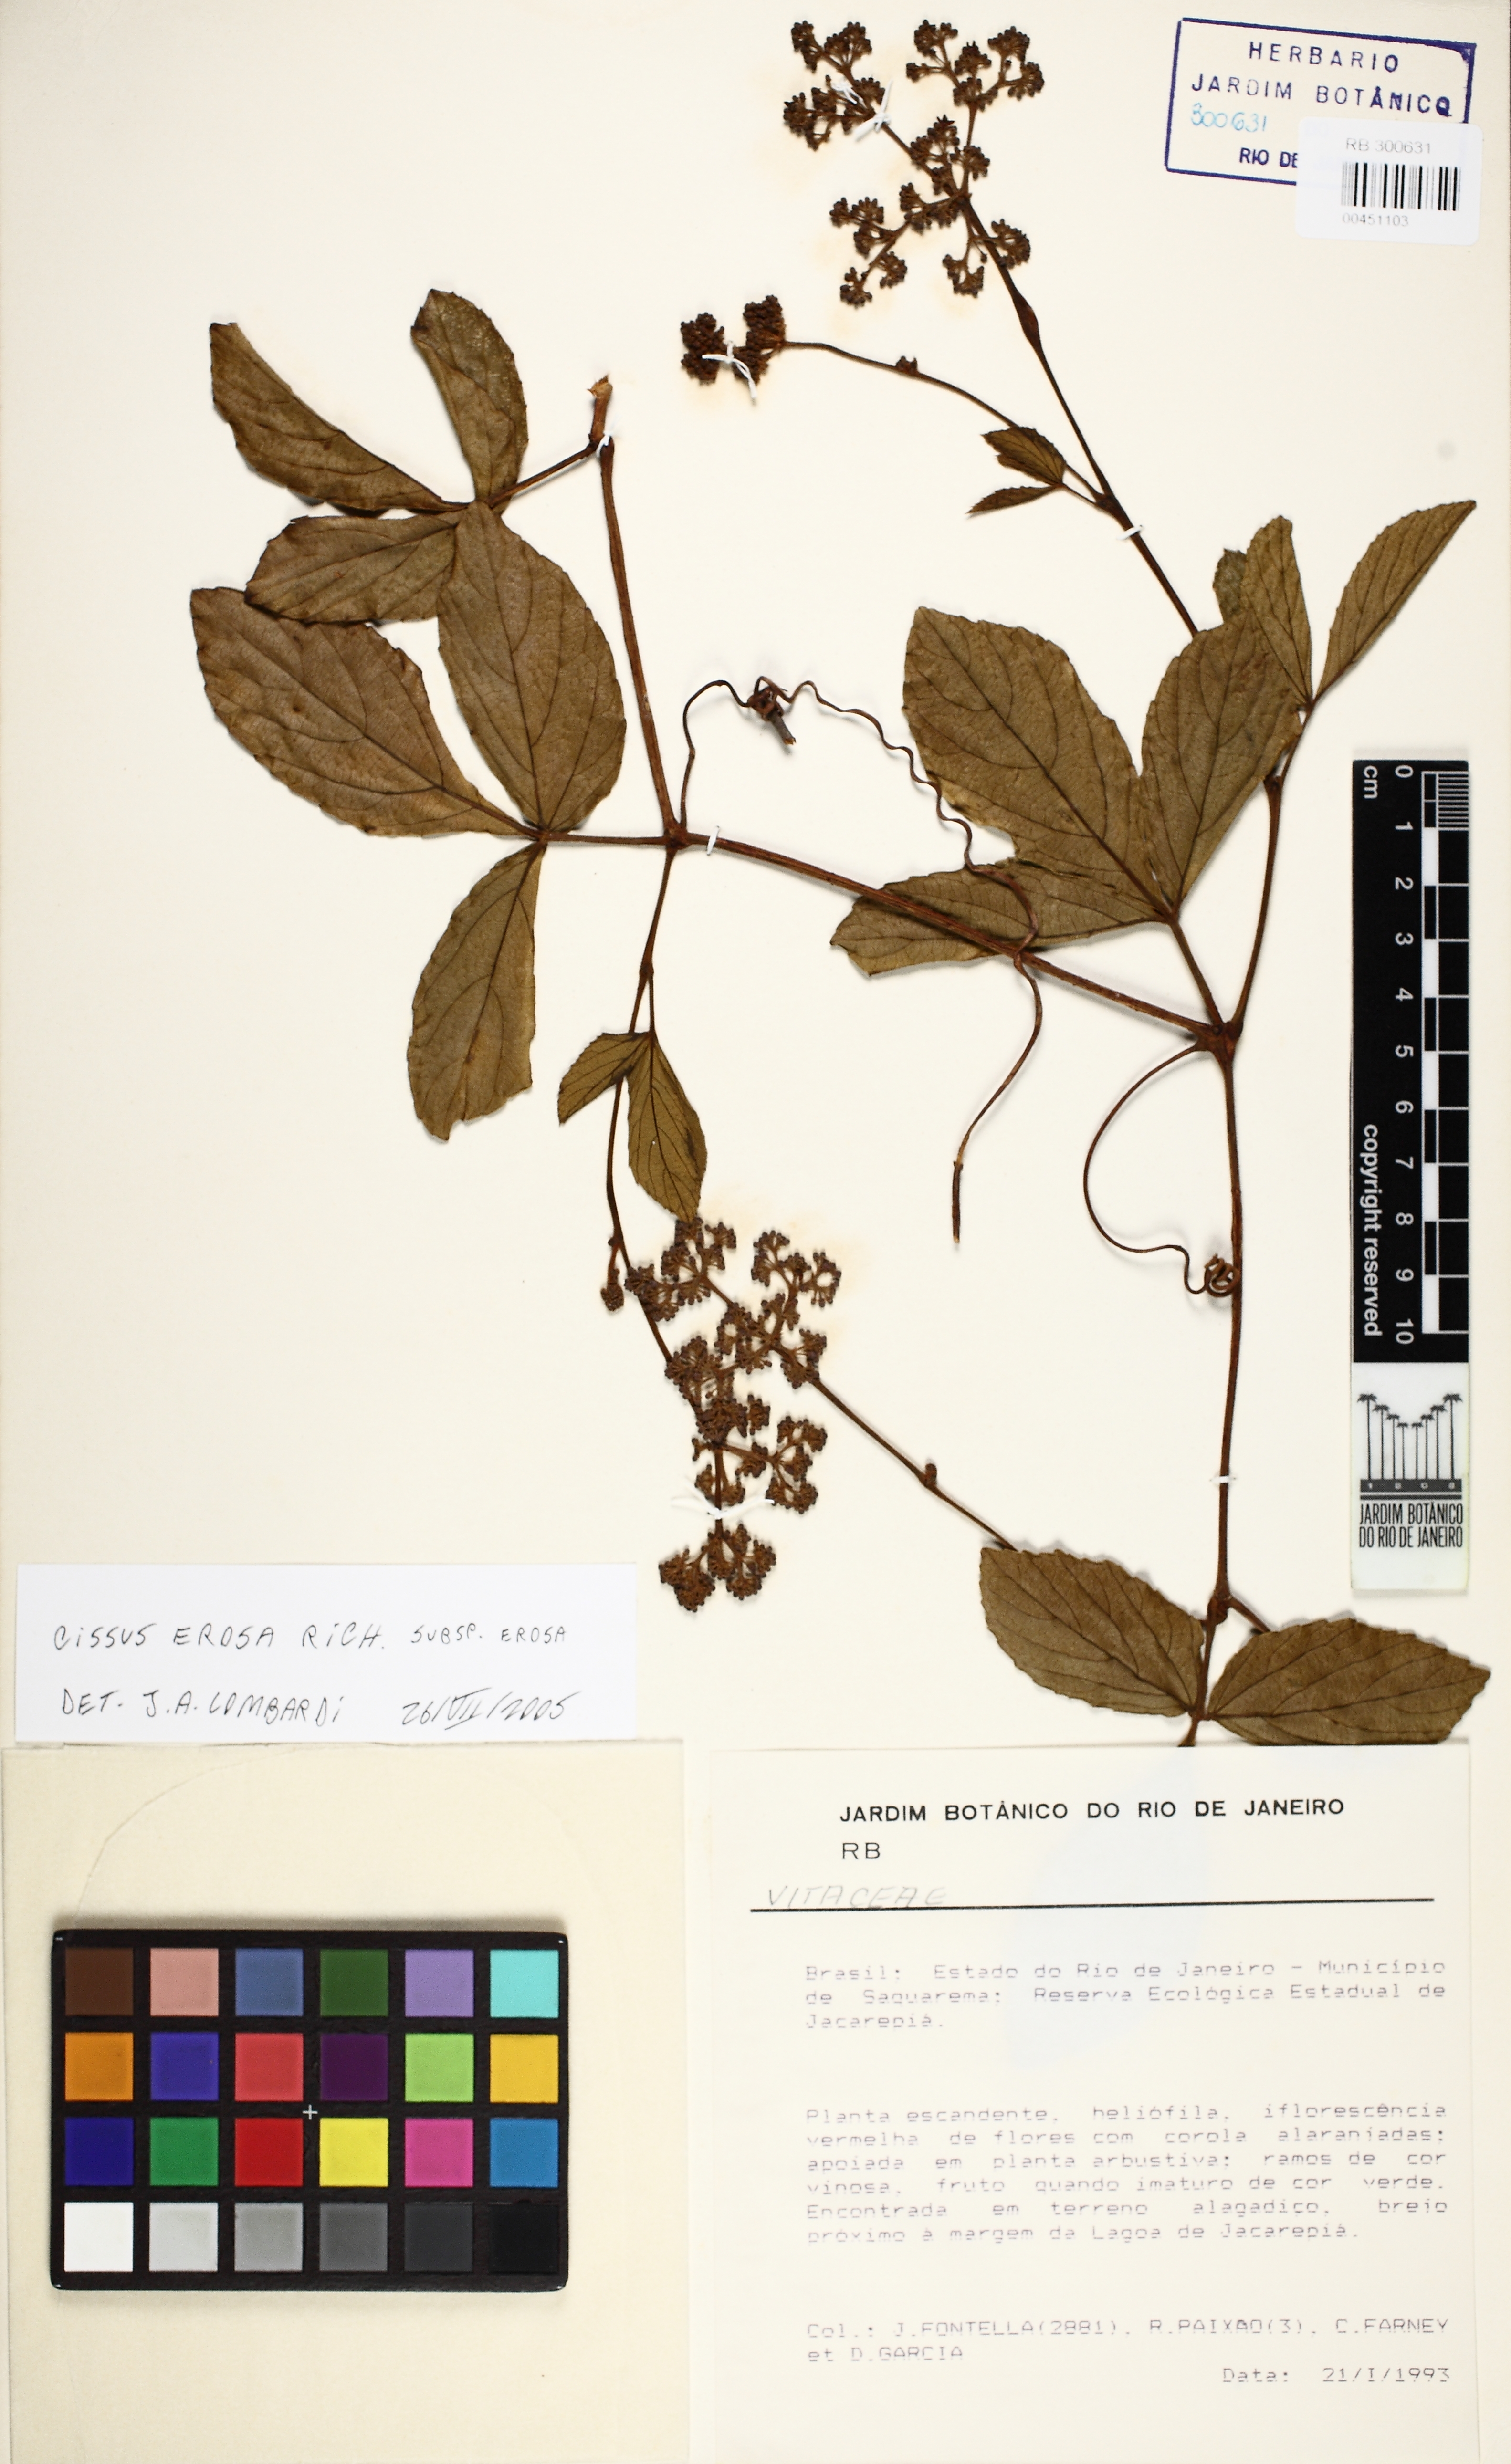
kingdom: Plantae
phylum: Tracheophyta
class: Magnoliopsida
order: Vitales
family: Vitaceae
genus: Cissus
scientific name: Cissus erosa
